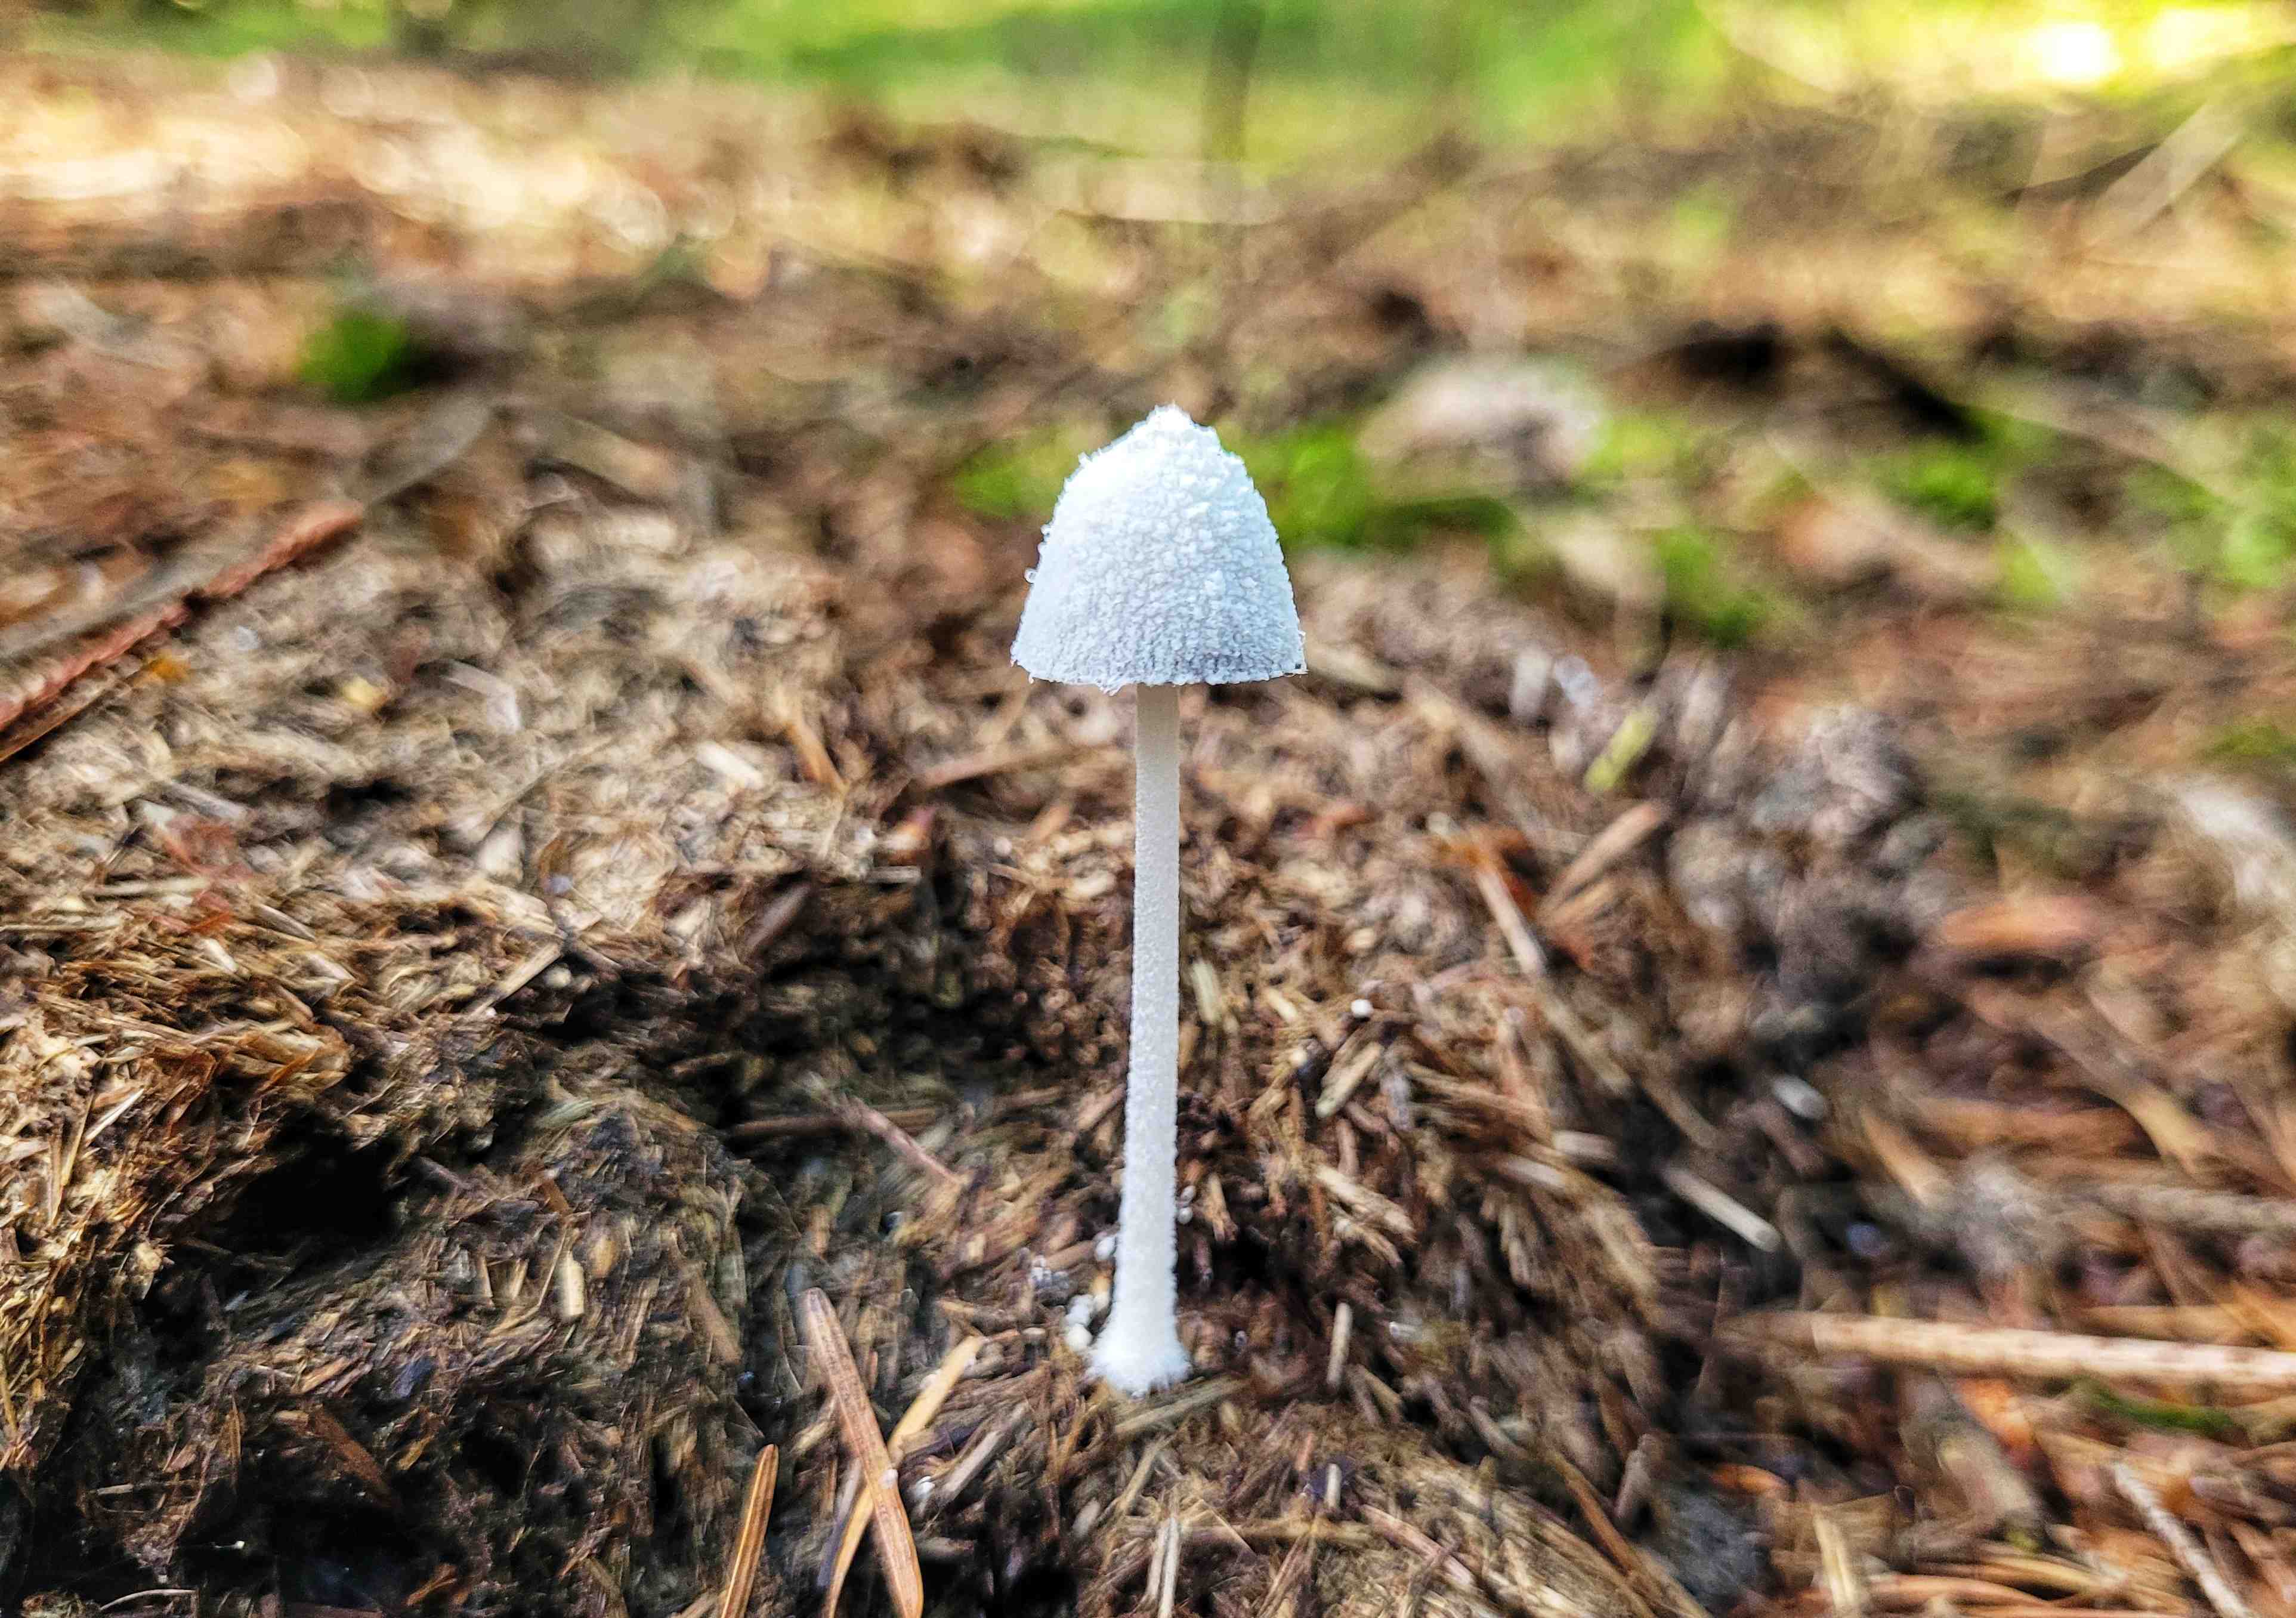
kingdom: Fungi
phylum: Basidiomycota
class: Agaricomycetes
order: Agaricales
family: Psathyrellaceae
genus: Coprinopsis
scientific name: Coprinopsis nivea
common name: snehvid blækhat
